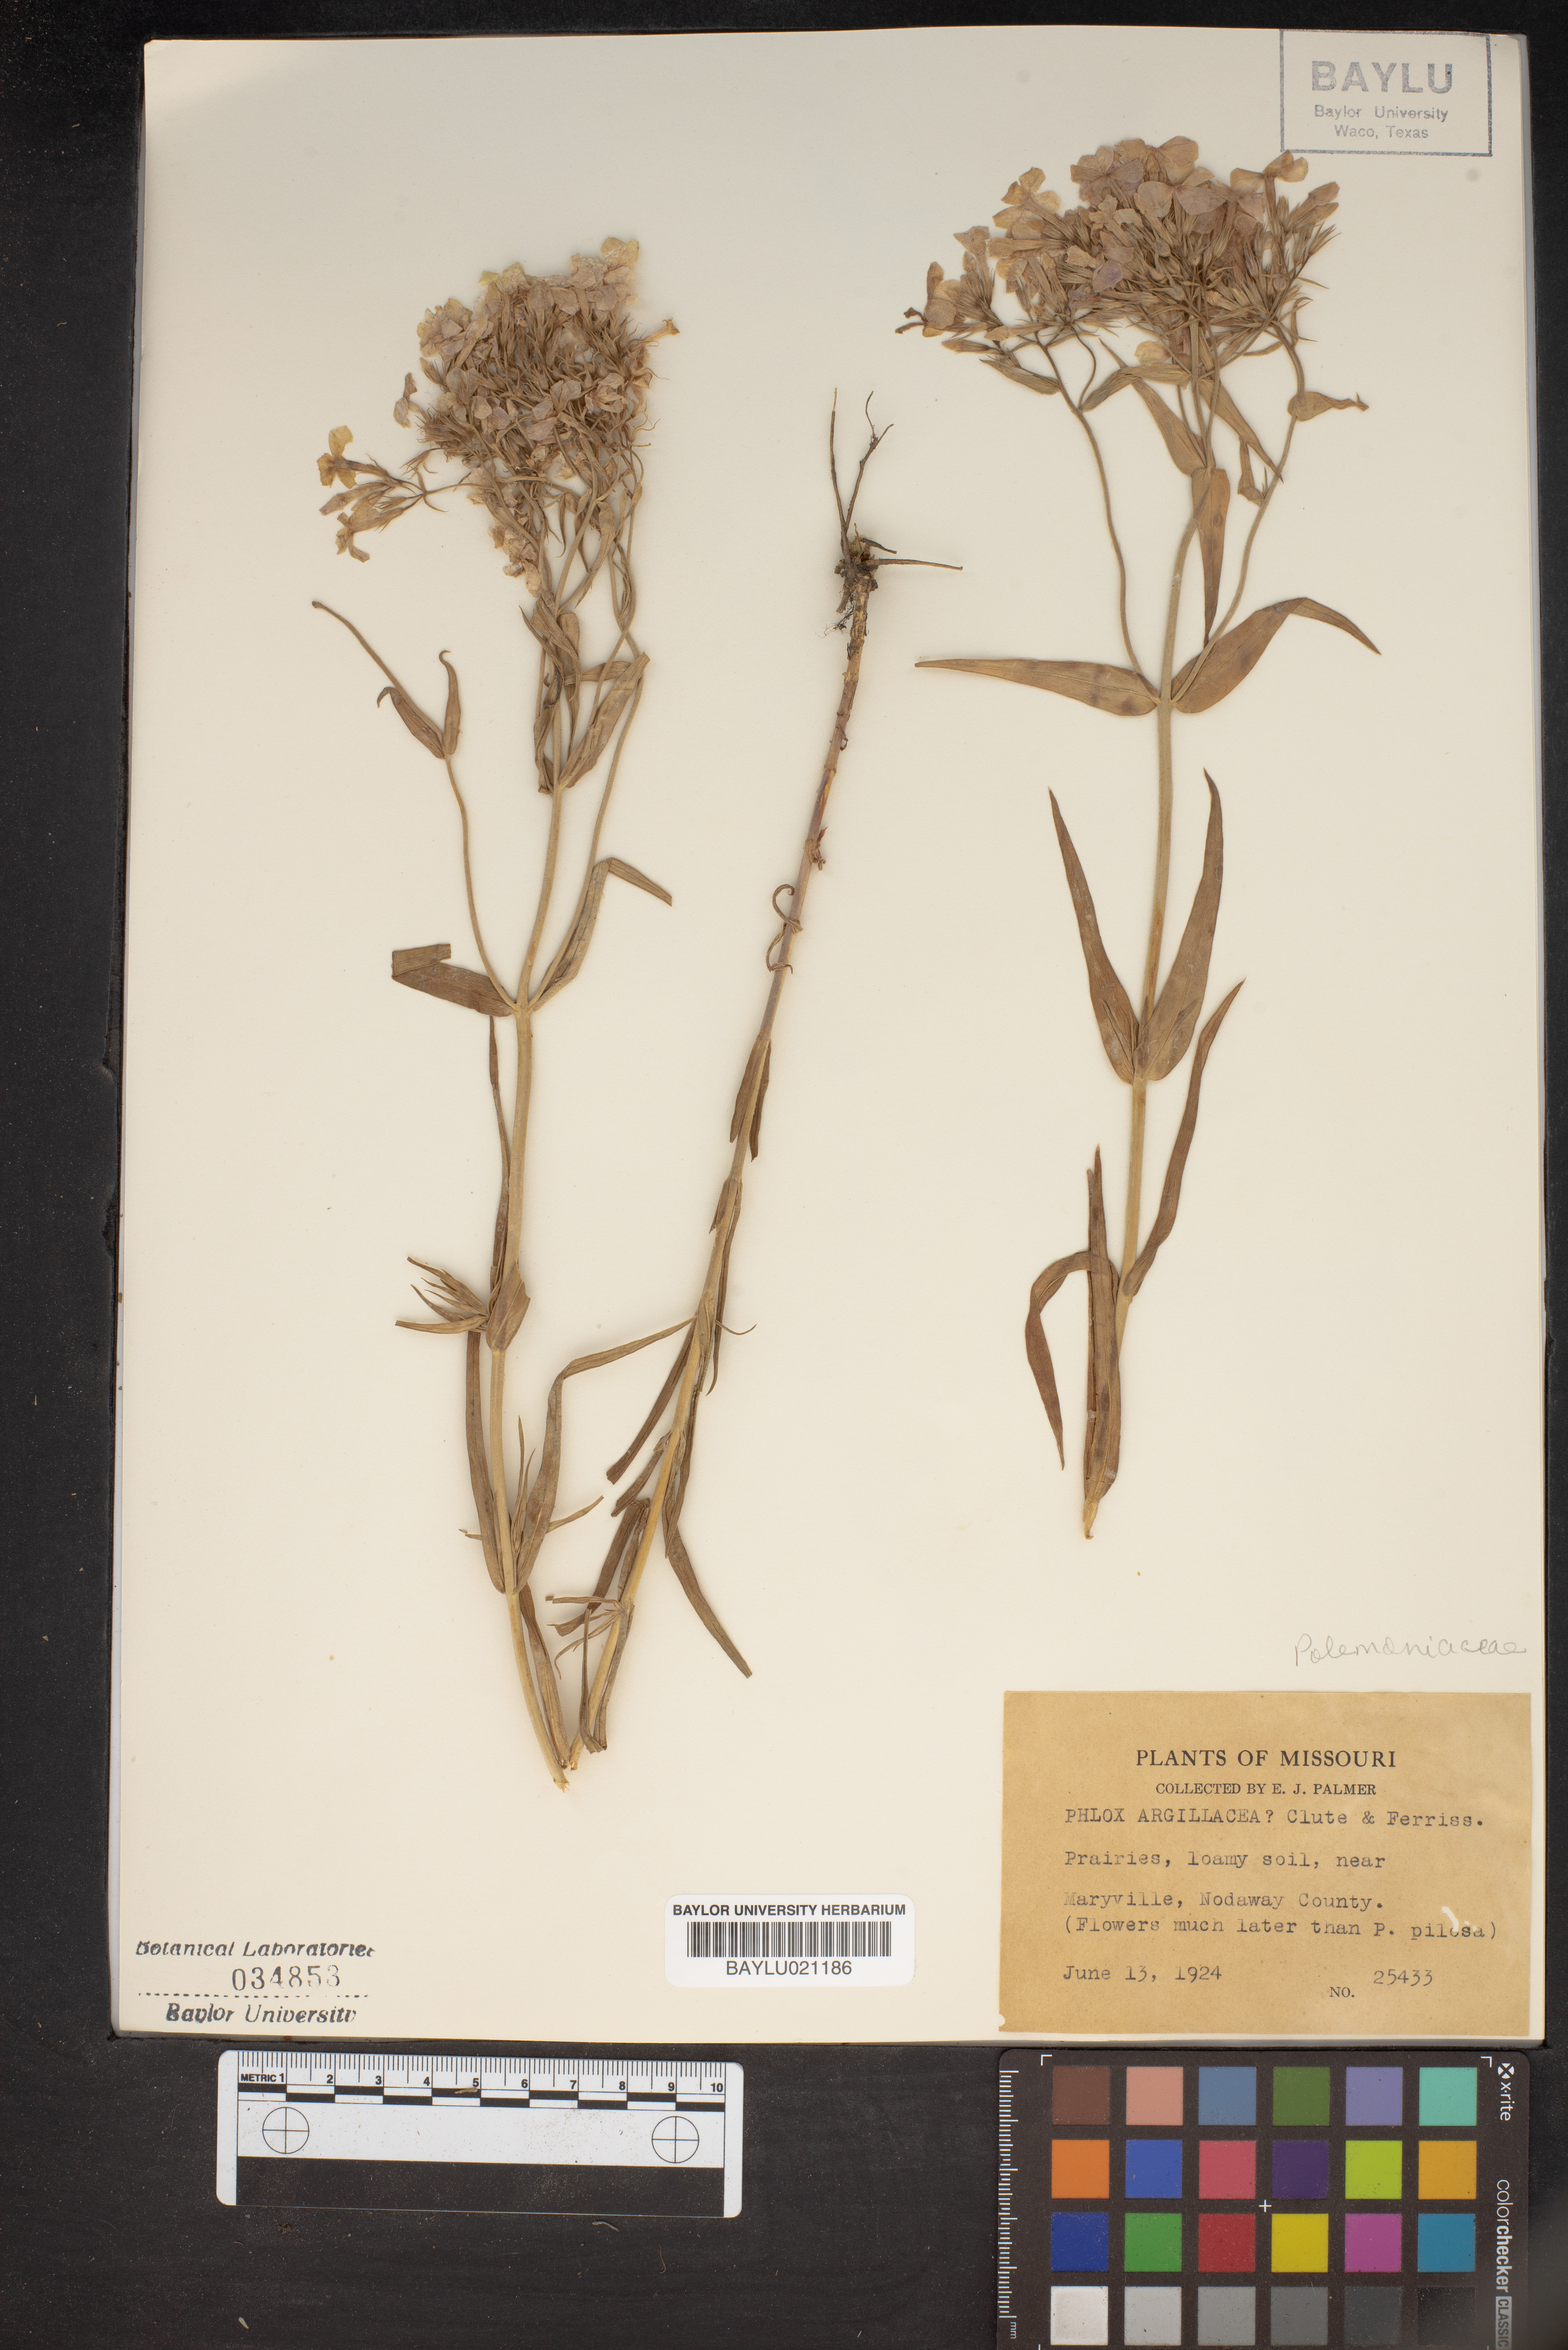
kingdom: Plantae
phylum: Tracheophyta
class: Magnoliopsida
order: Ericales
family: Polemoniaceae
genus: Phlox
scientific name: Phlox pilosa
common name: Prairie phlox
